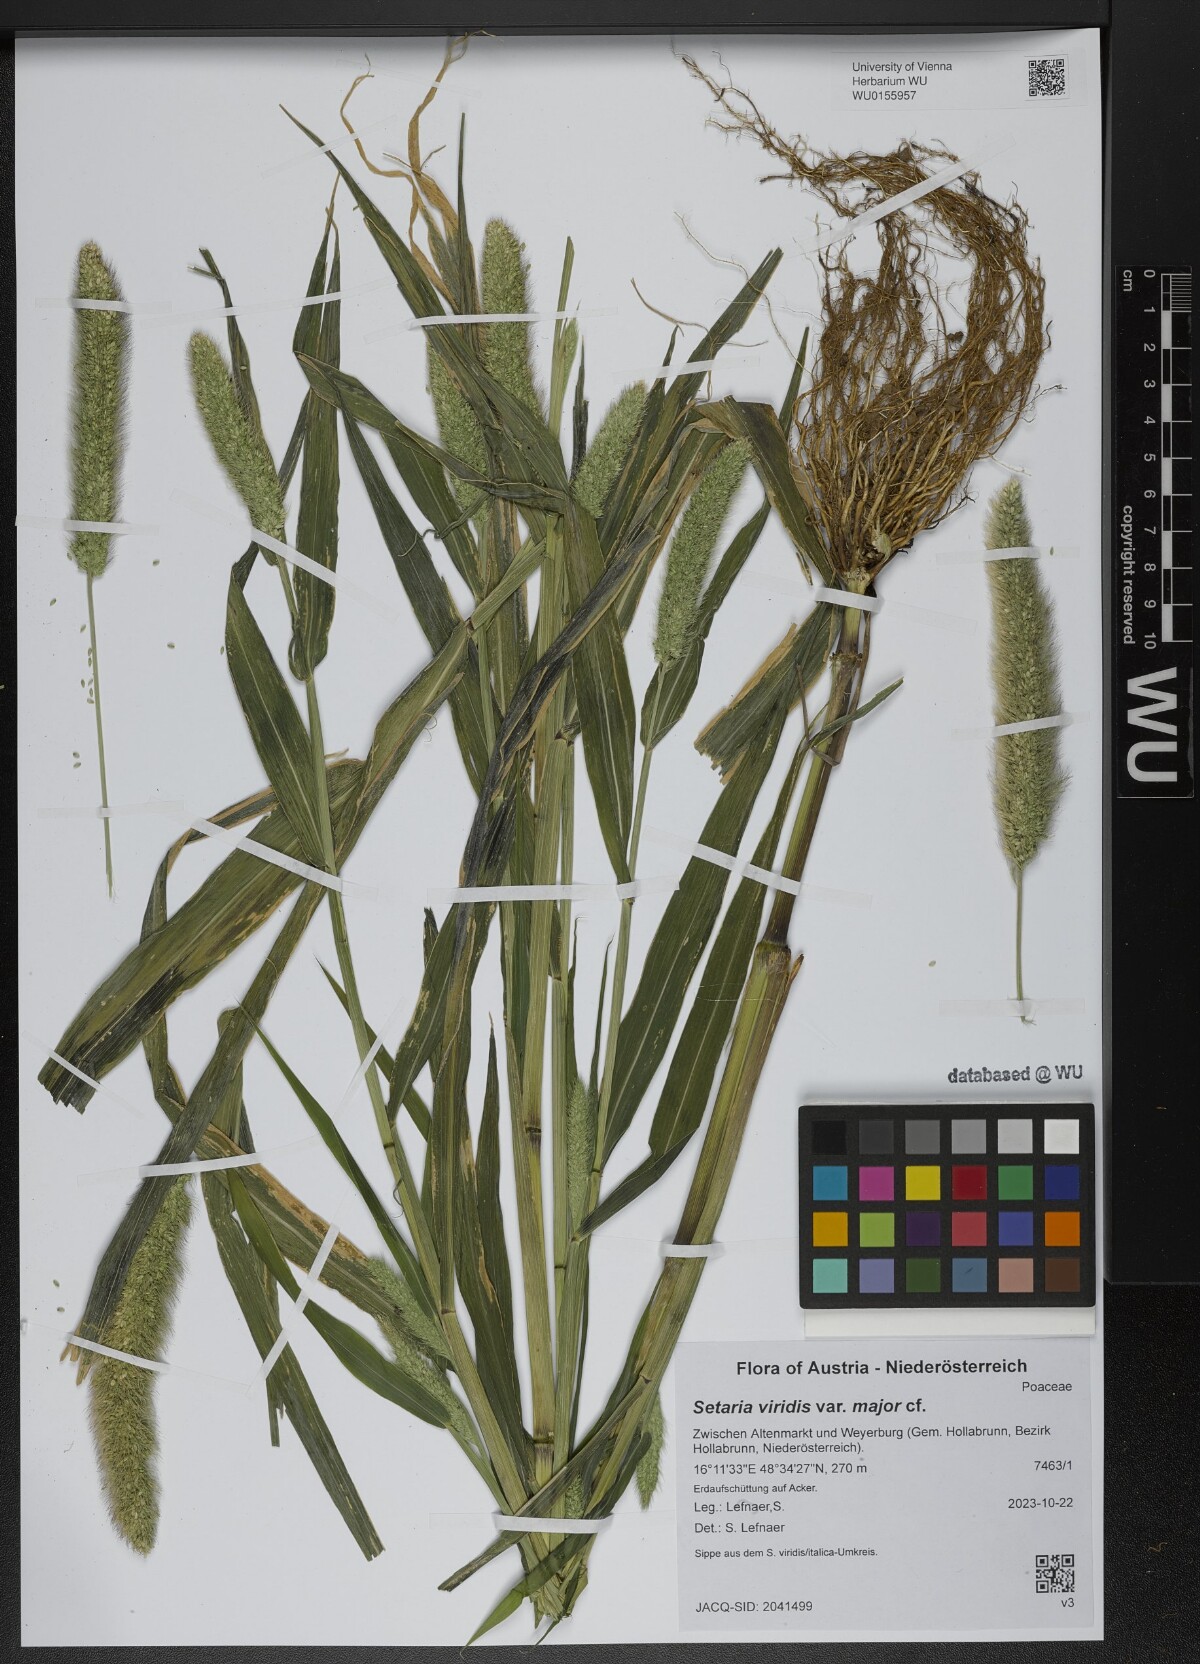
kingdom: Plantae
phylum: Tracheophyta
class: Liliopsida
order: Poales
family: Poaceae
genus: Setaria
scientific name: Setaria viridis
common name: Green bristlegrass
